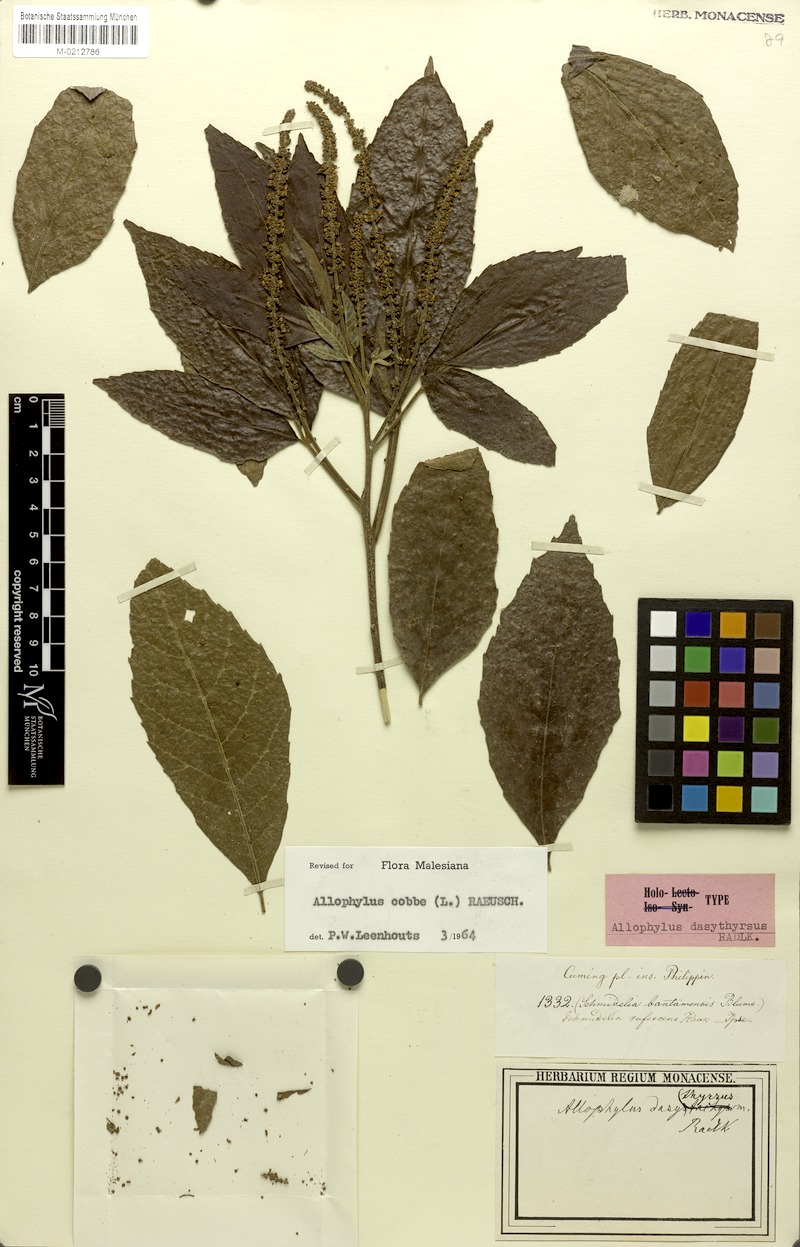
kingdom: Plantae
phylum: Tracheophyta
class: Magnoliopsida
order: Sapindales
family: Sapindaceae
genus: Allophylus
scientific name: Allophylus dasythyrsus
